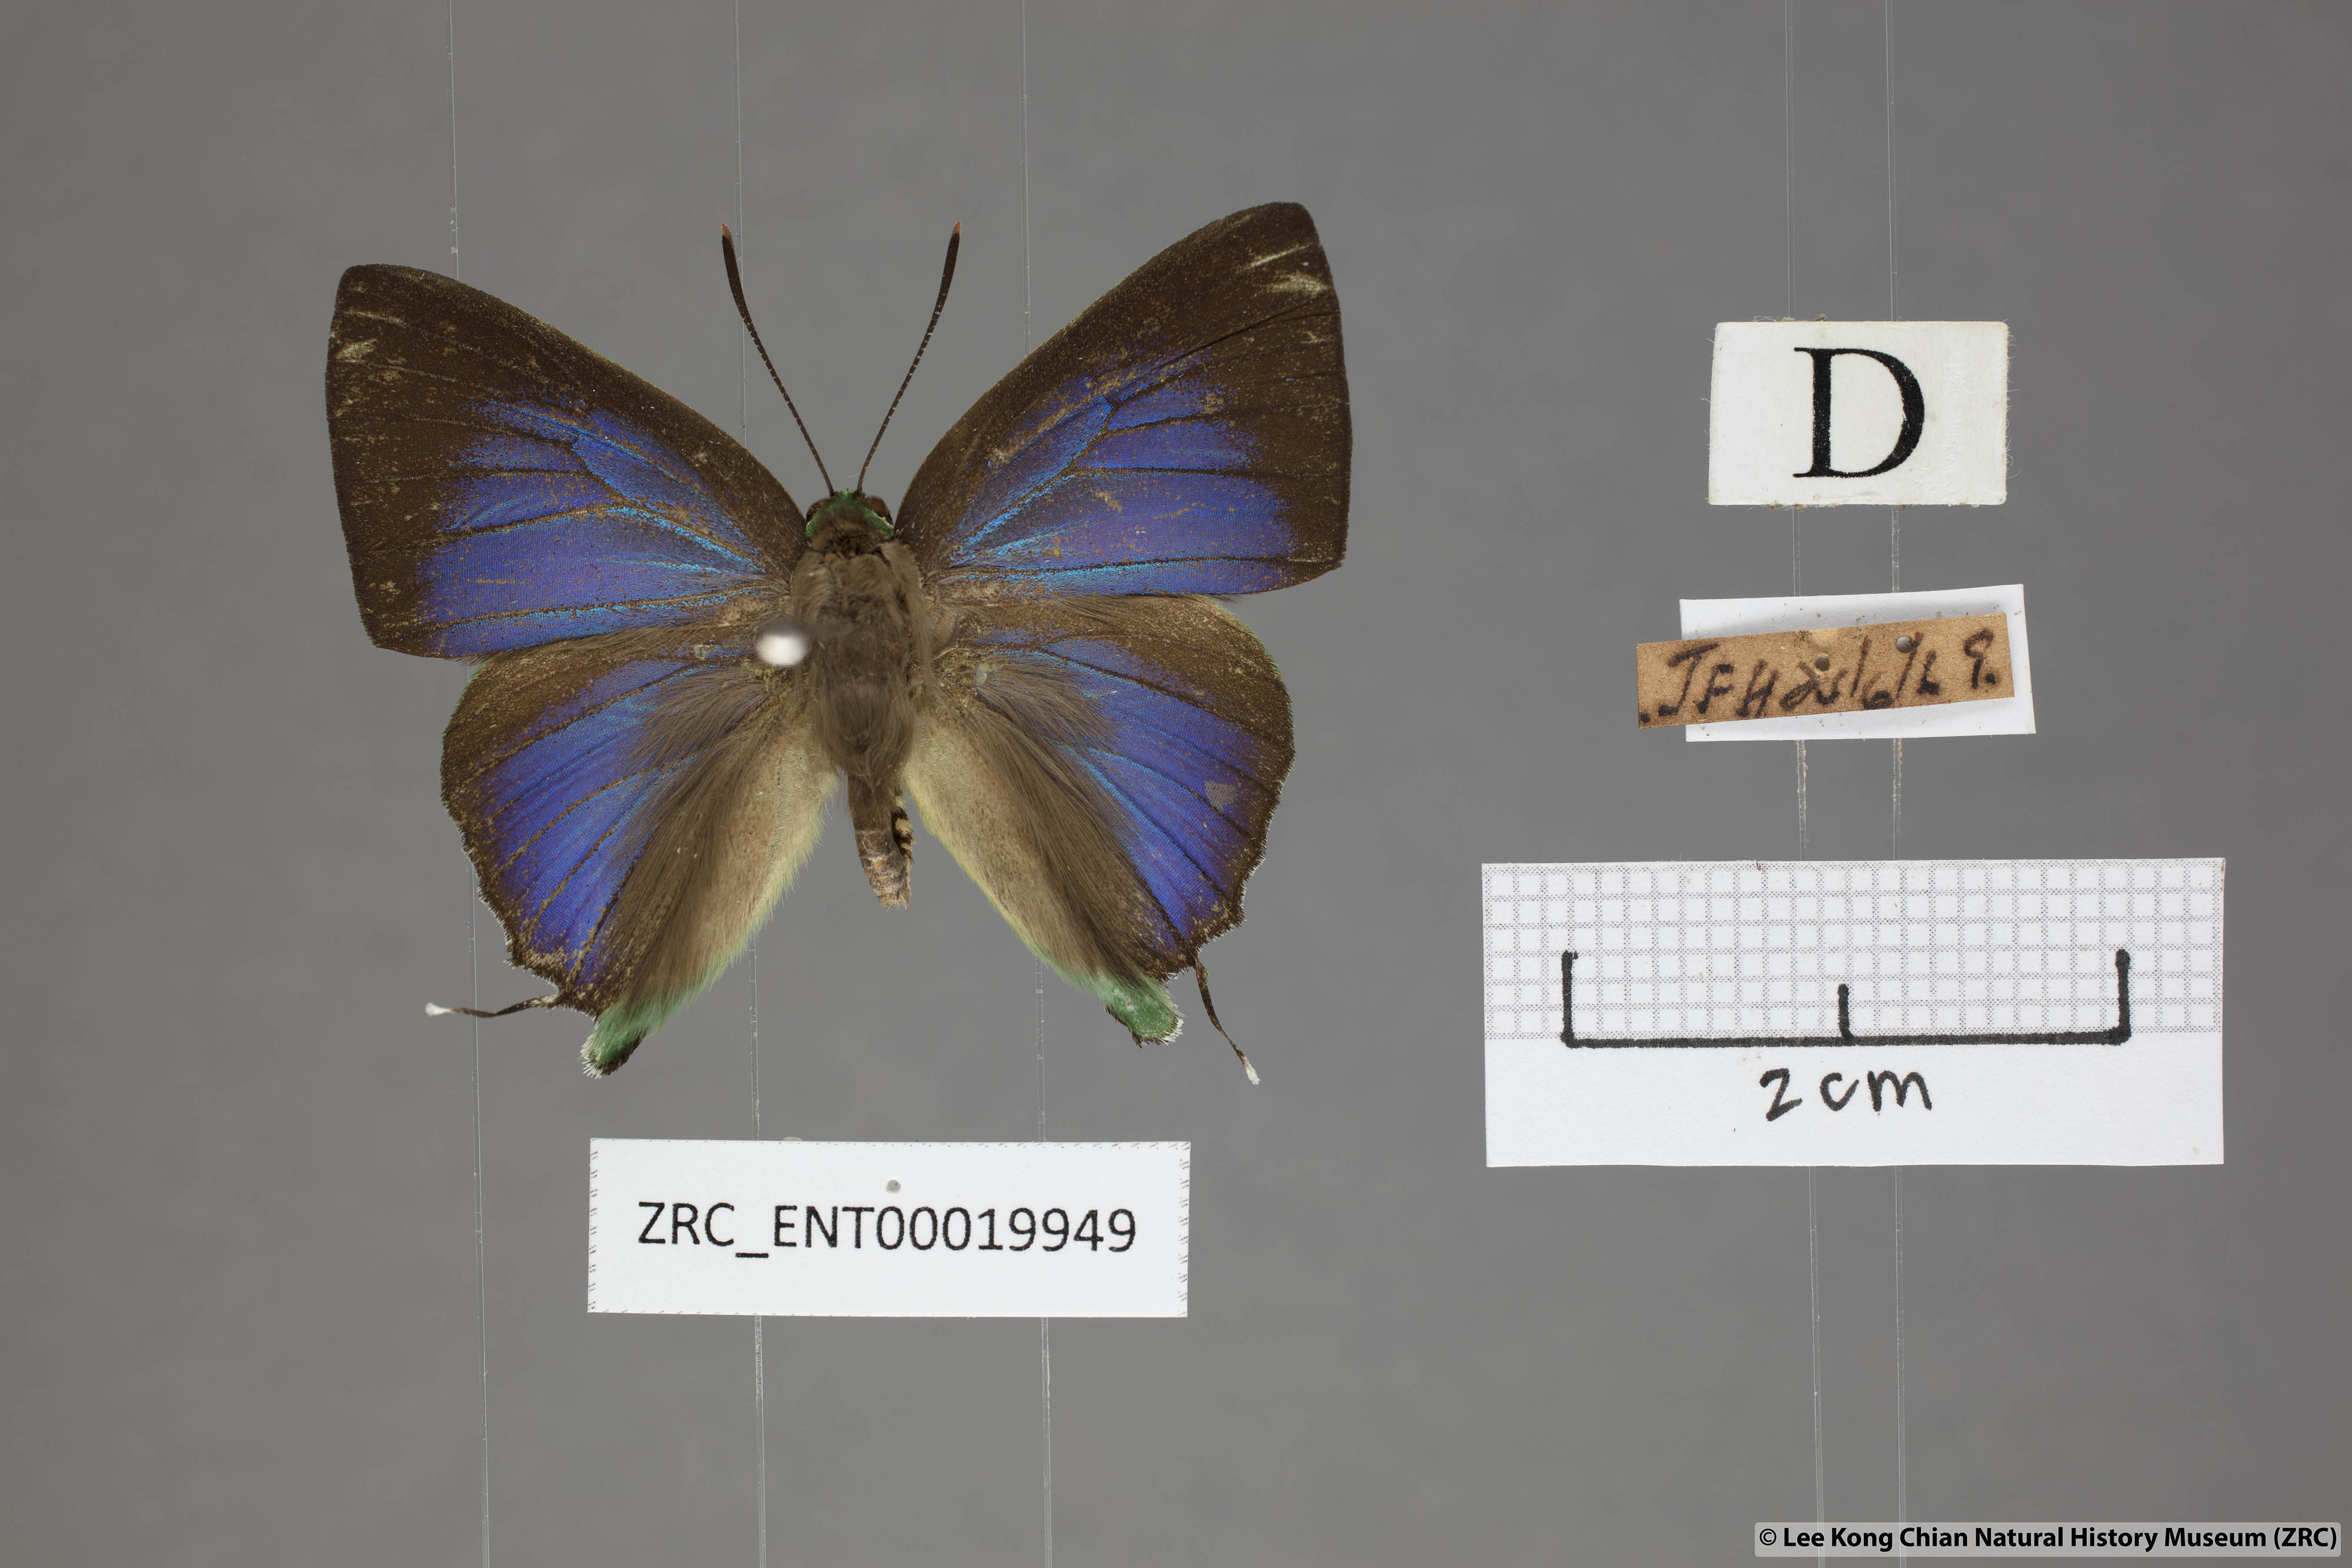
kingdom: Animalia
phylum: Arthropoda
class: Insecta
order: Lepidoptera
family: Lycaenidae
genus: Artipe
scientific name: Artipe eryx
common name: Green flash
